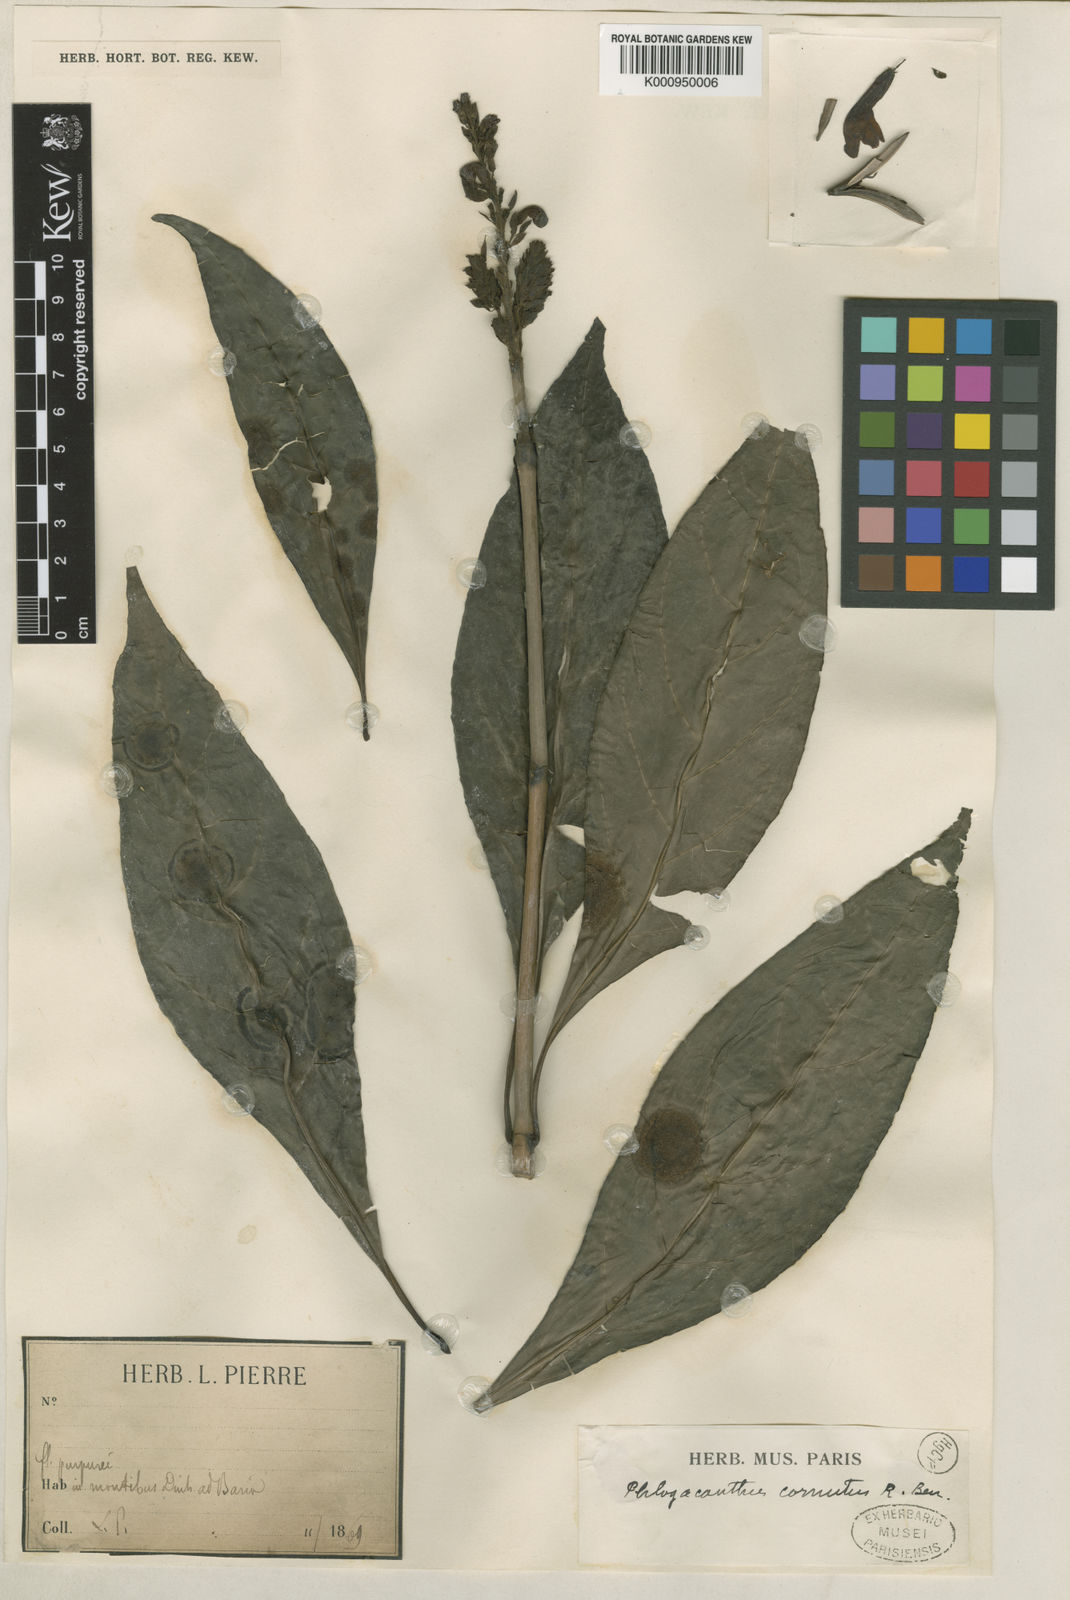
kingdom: Plantae
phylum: Tracheophyta
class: Magnoliopsida
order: Lamiales
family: Acanthaceae
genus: Phlogacanthus
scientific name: Phlogacanthus cornutus
